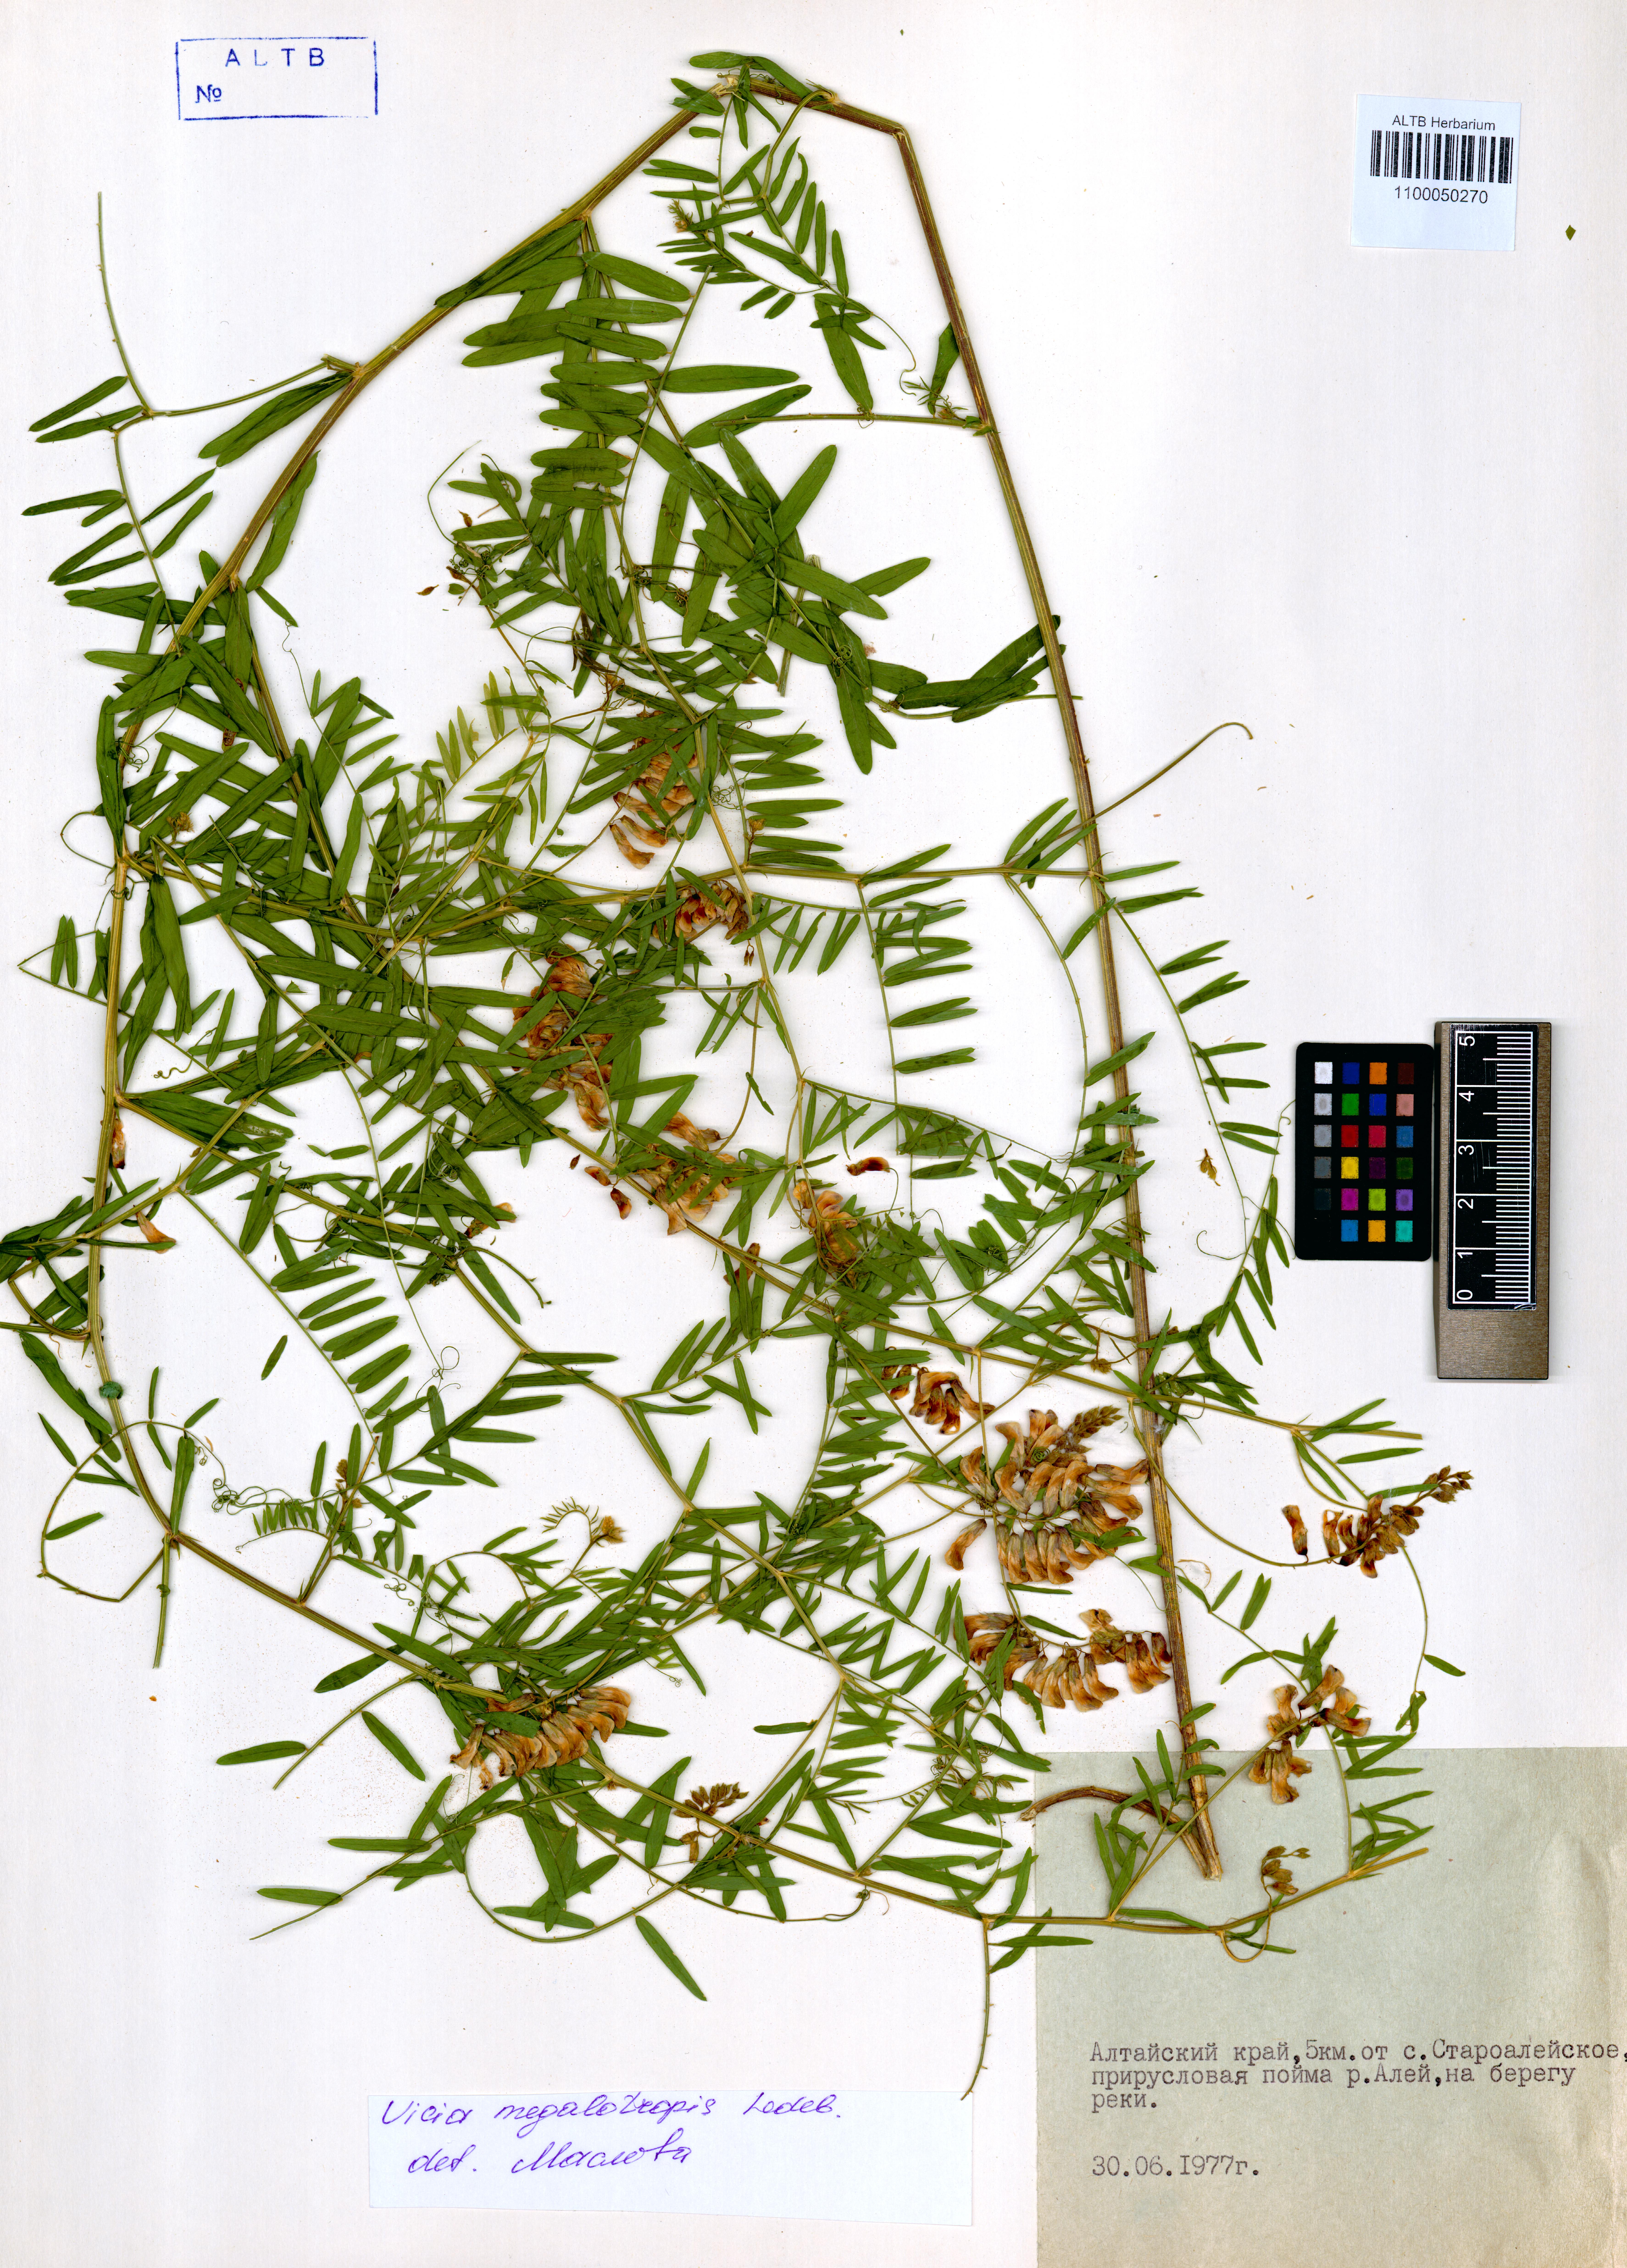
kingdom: Plantae
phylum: Tracheophyta
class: Magnoliopsida
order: Fabales
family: Fabaceae
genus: Vicia
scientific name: Vicia megalotropis
